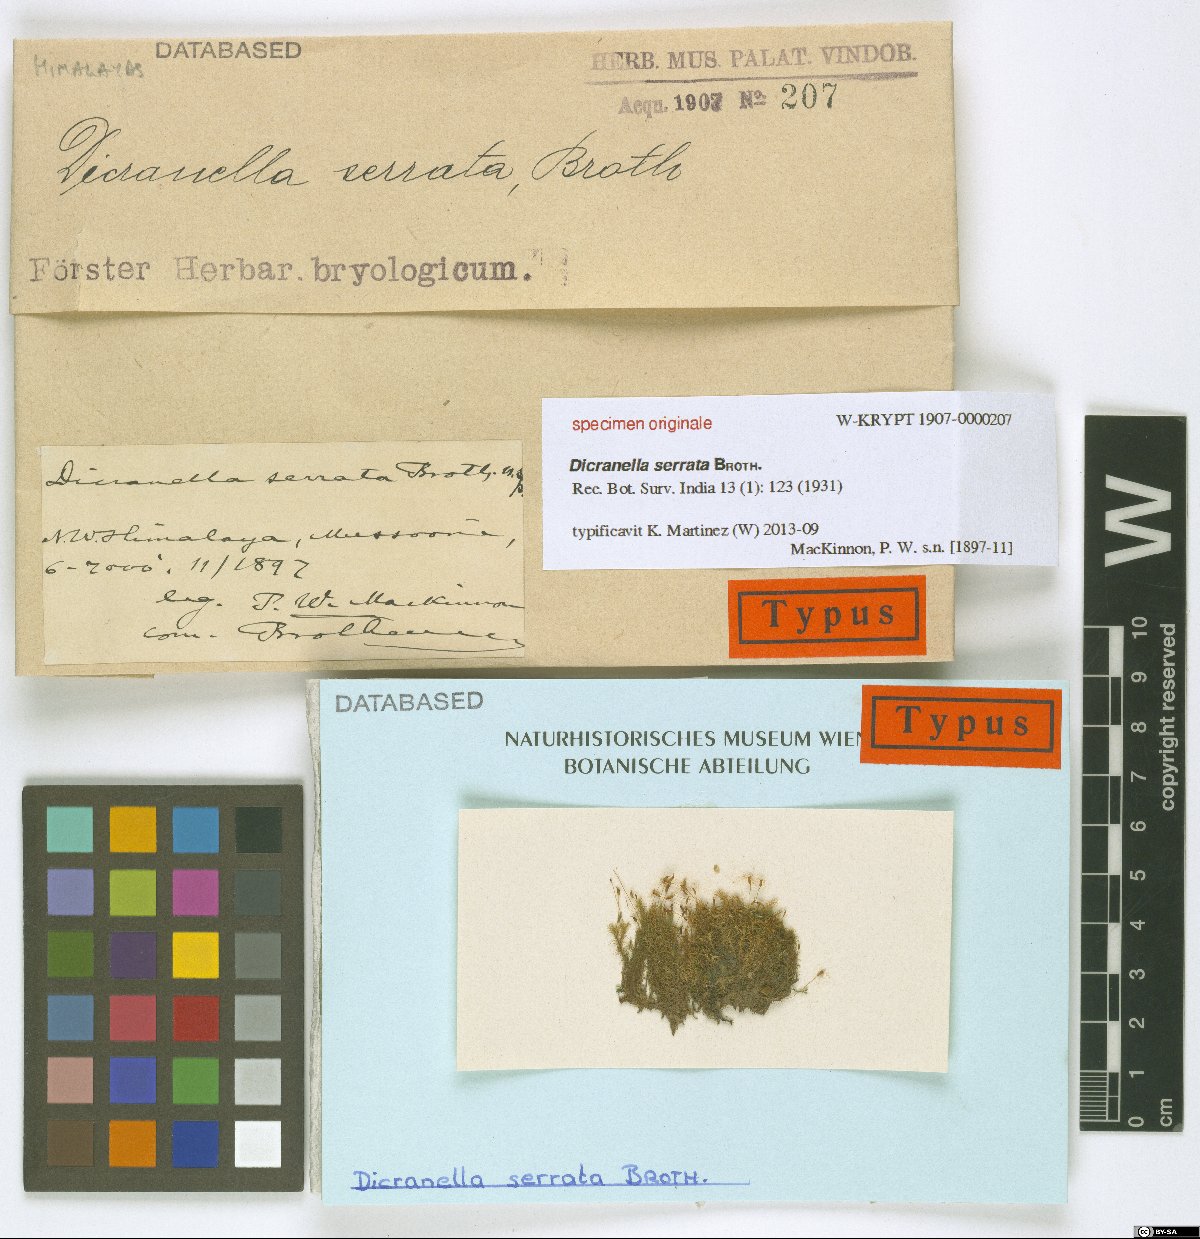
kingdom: Plantae
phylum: Bryophyta
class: Bryopsida
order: Dicranales
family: Dicranellaceae
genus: Dicranella
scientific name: Dicranella serrata
